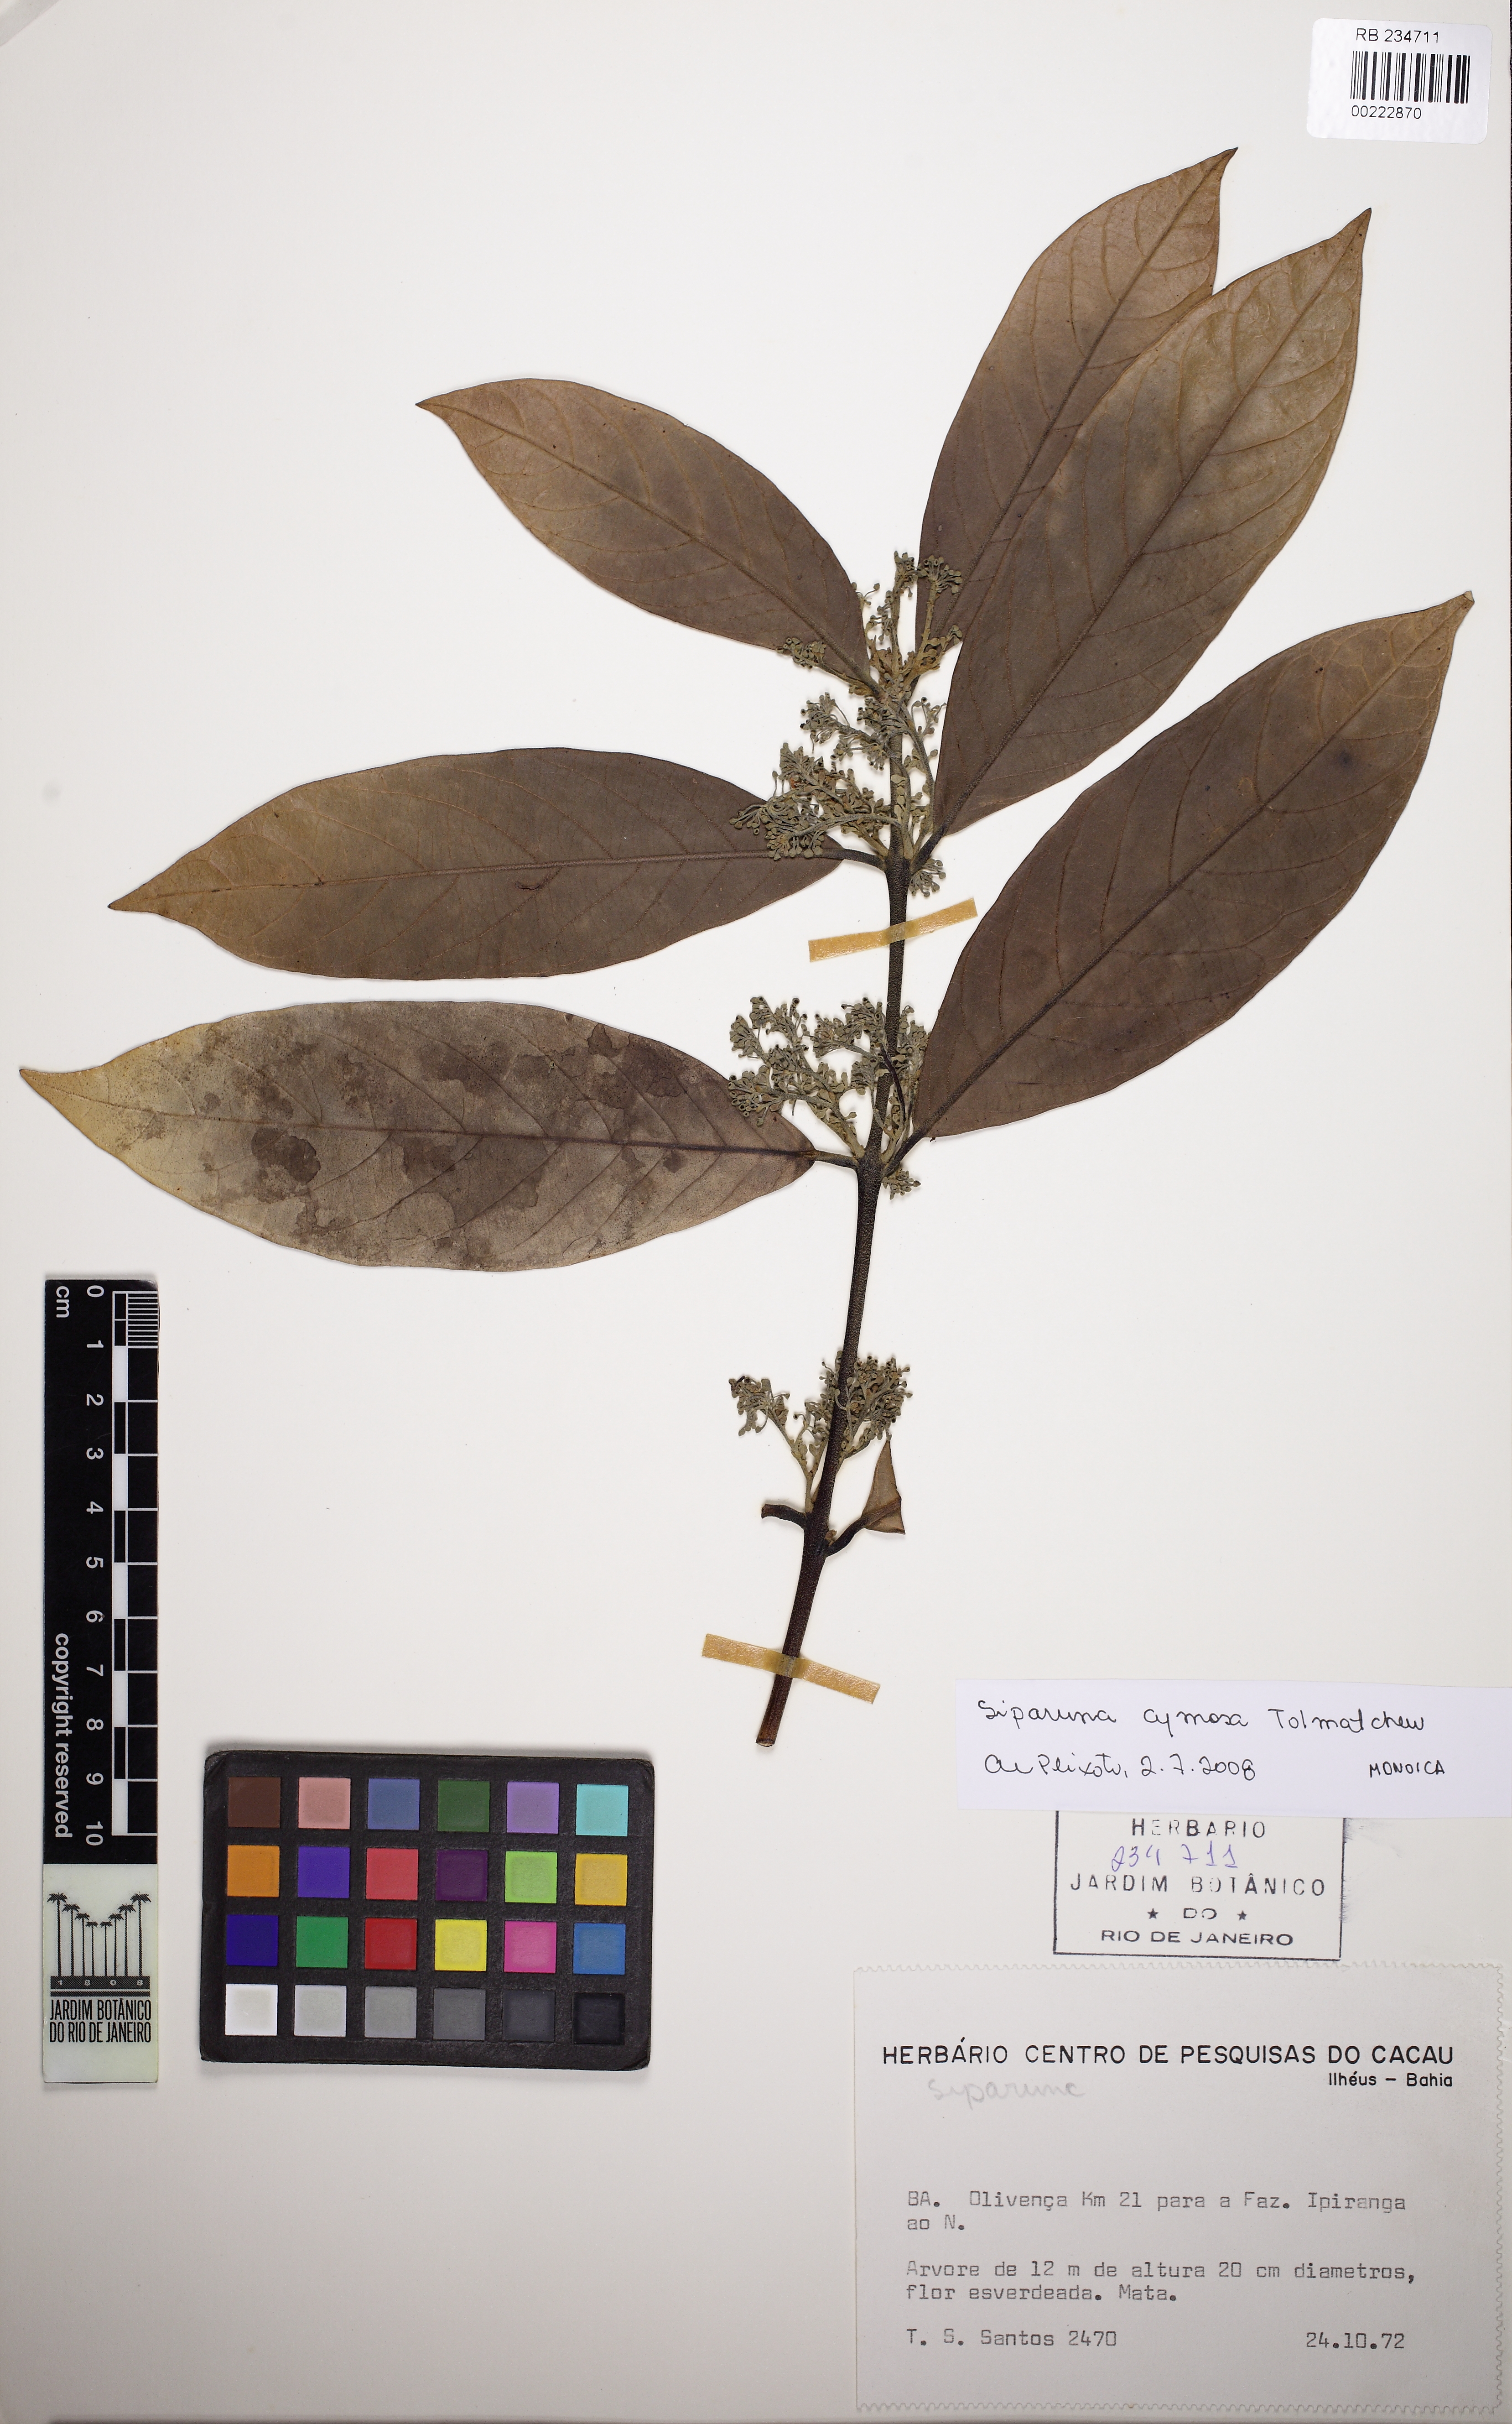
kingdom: Plantae
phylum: Tracheophyta
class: Magnoliopsida
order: Laurales
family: Siparunaceae
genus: Siparuna
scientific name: Siparuna cymosa
